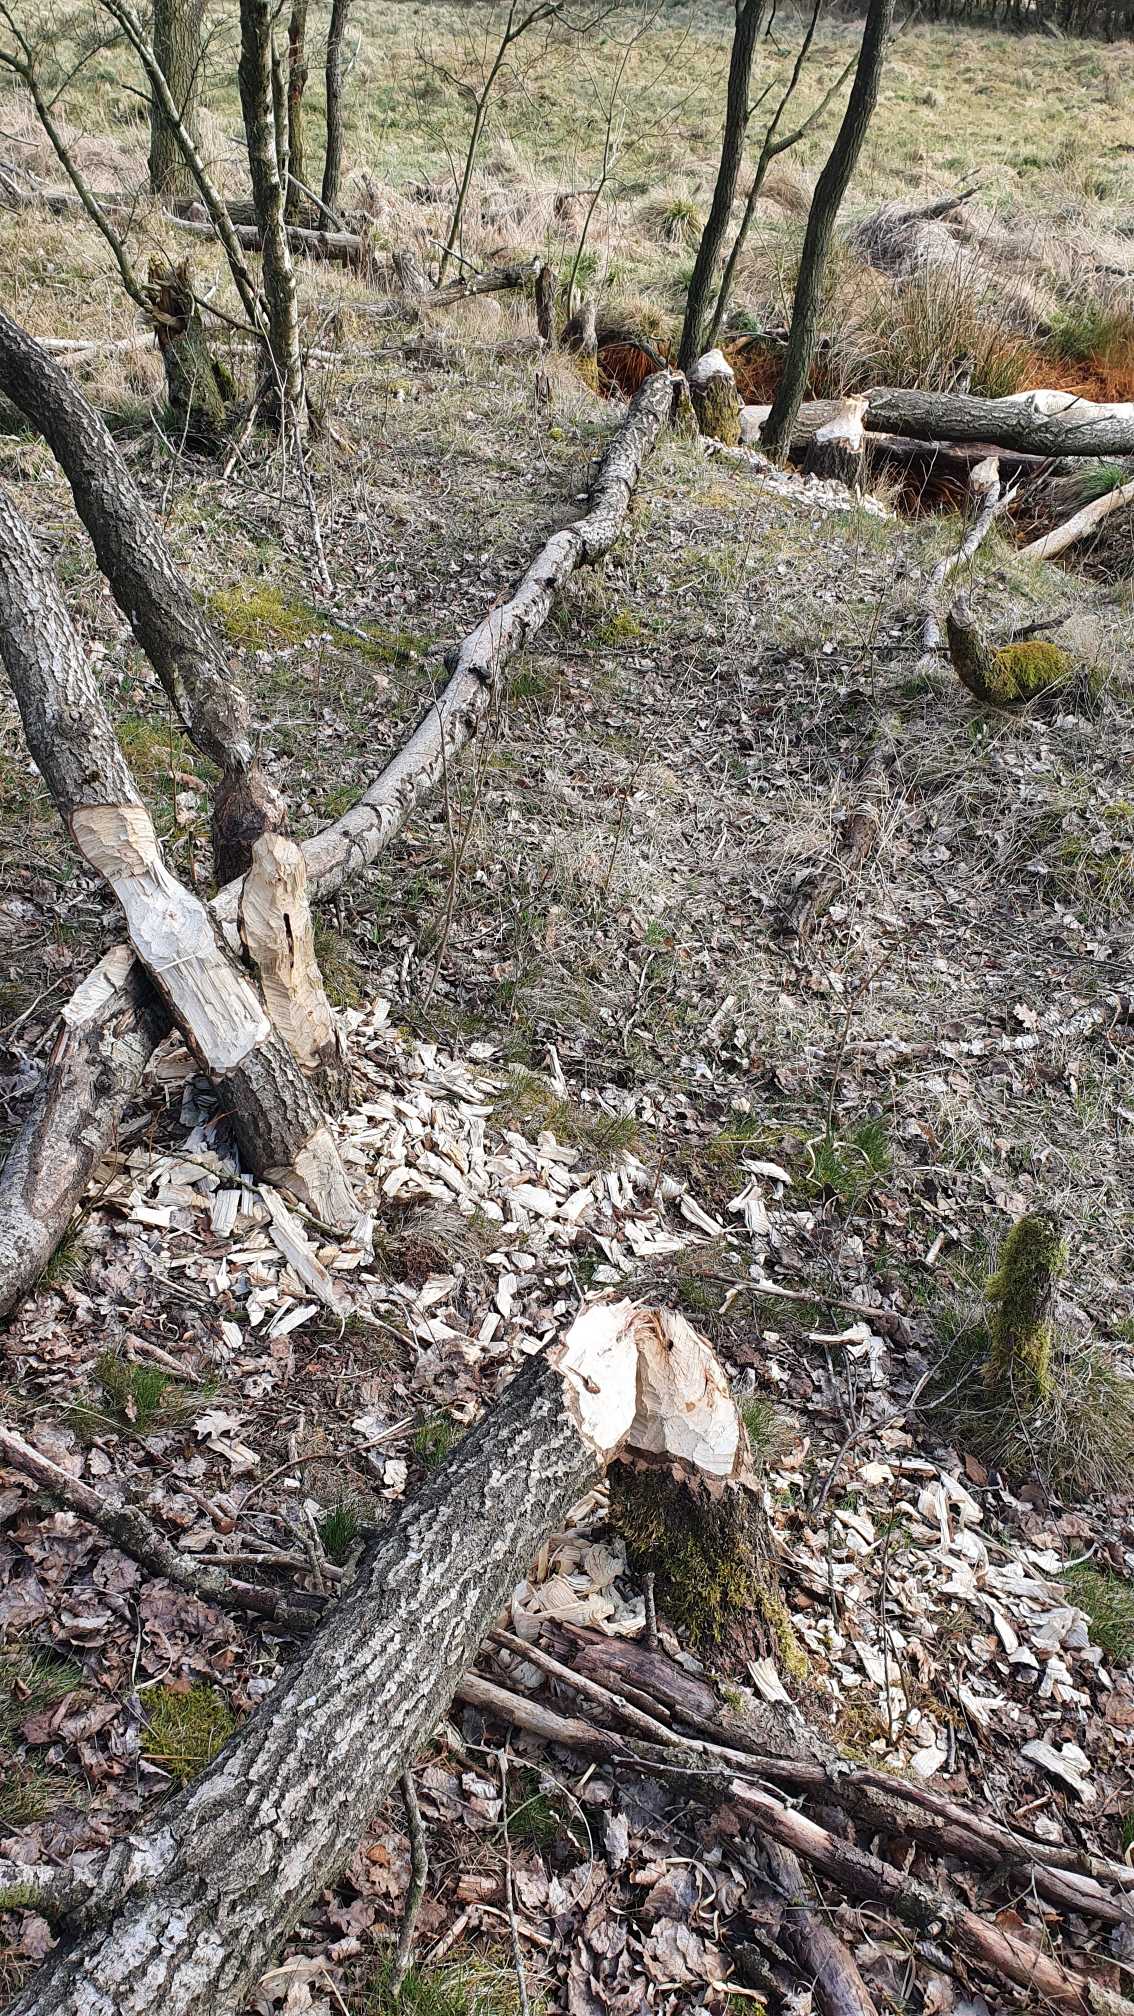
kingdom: Animalia
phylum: Chordata
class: Mammalia
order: Rodentia
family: Castoridae
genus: Castor
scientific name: Castor fiber
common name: Bæver
